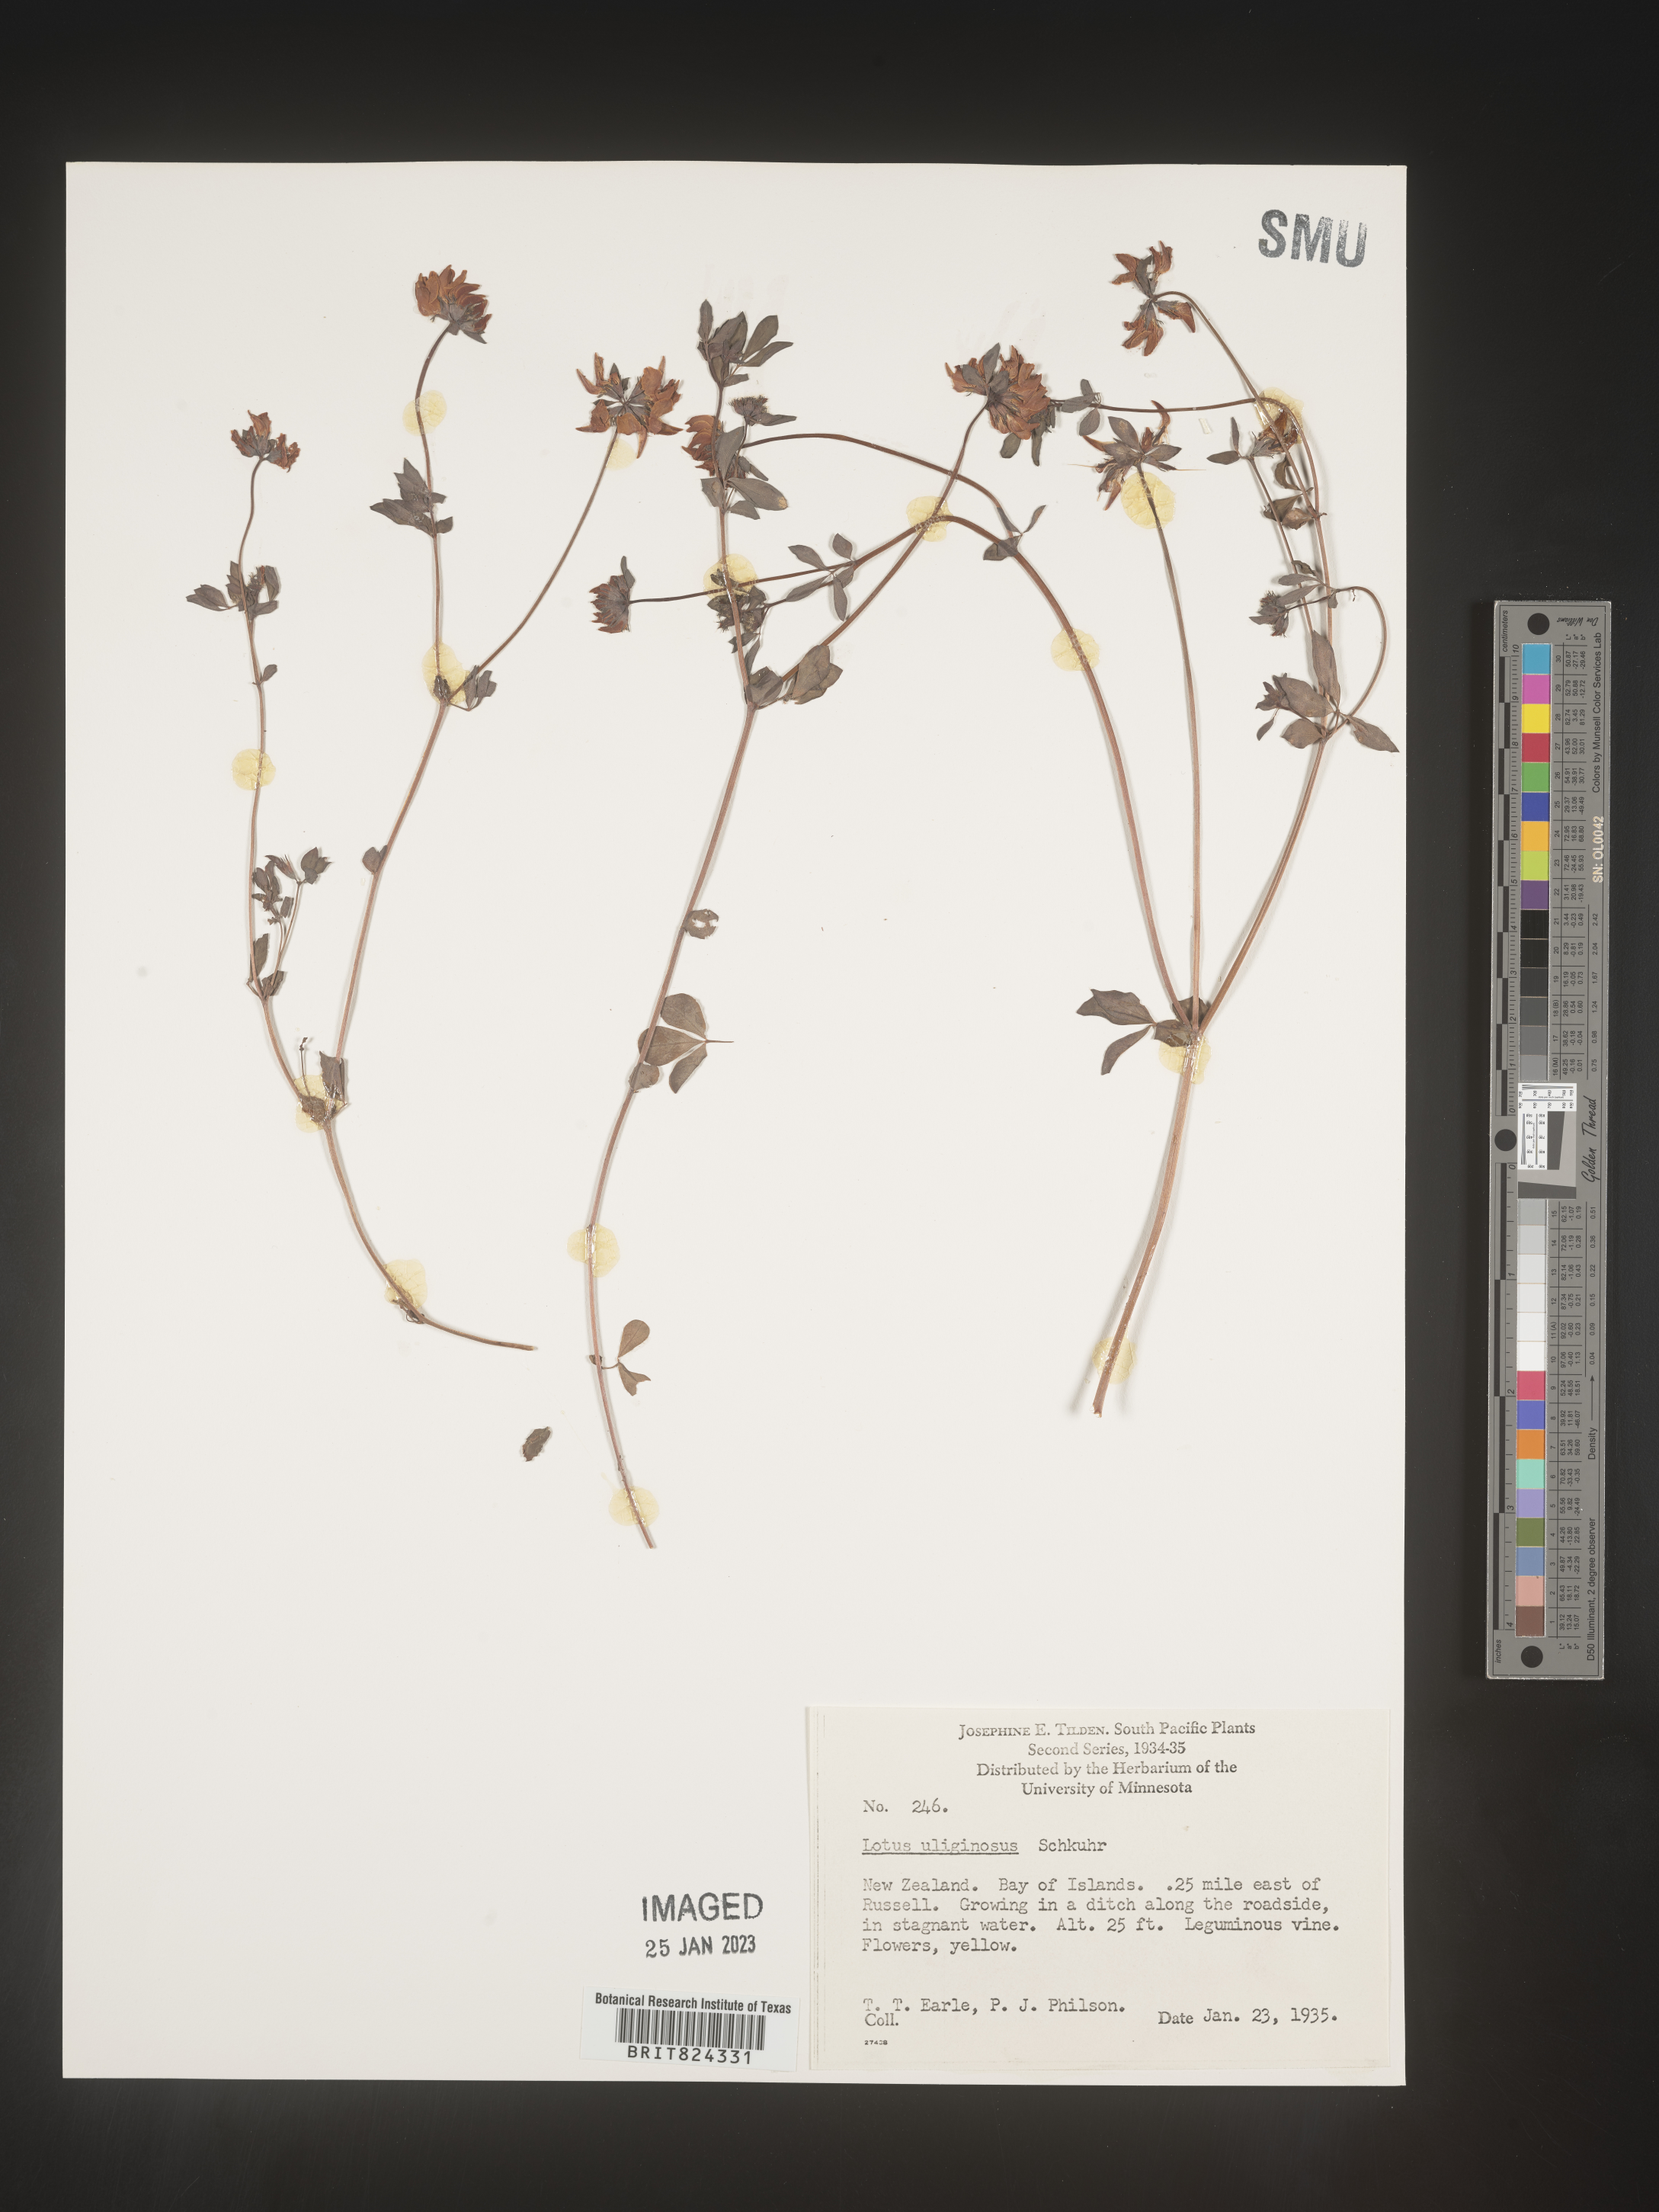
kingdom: Plantae
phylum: Tracheophyta
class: Magnoliopsida
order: Fabales
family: Fabaceae
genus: Lotus
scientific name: Lotus
